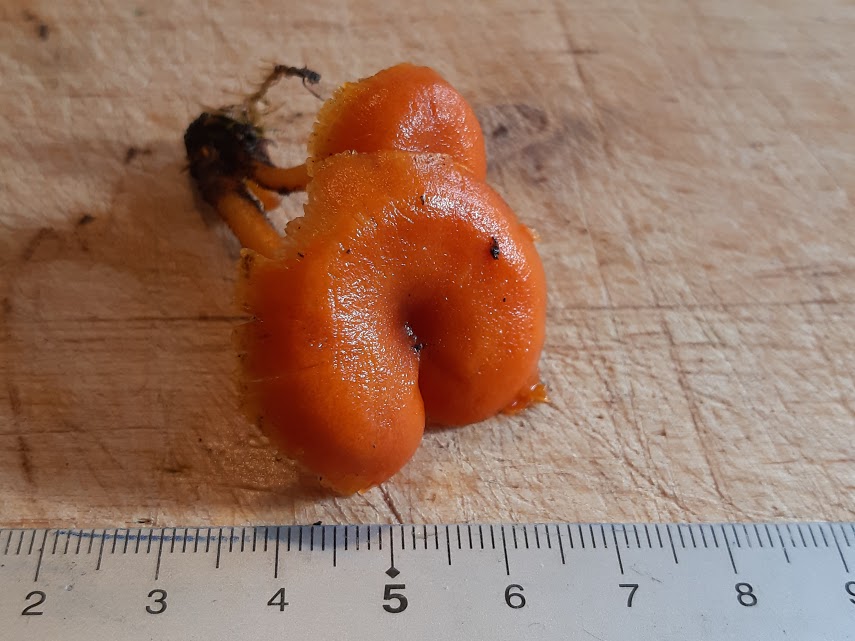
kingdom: Fungi
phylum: Basidiomycota
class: Agaricomycetes
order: Agaricales
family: Hygrophoraceae
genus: Hygrocybe
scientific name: Hygrocybe miniata
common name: mønje-vokshat
